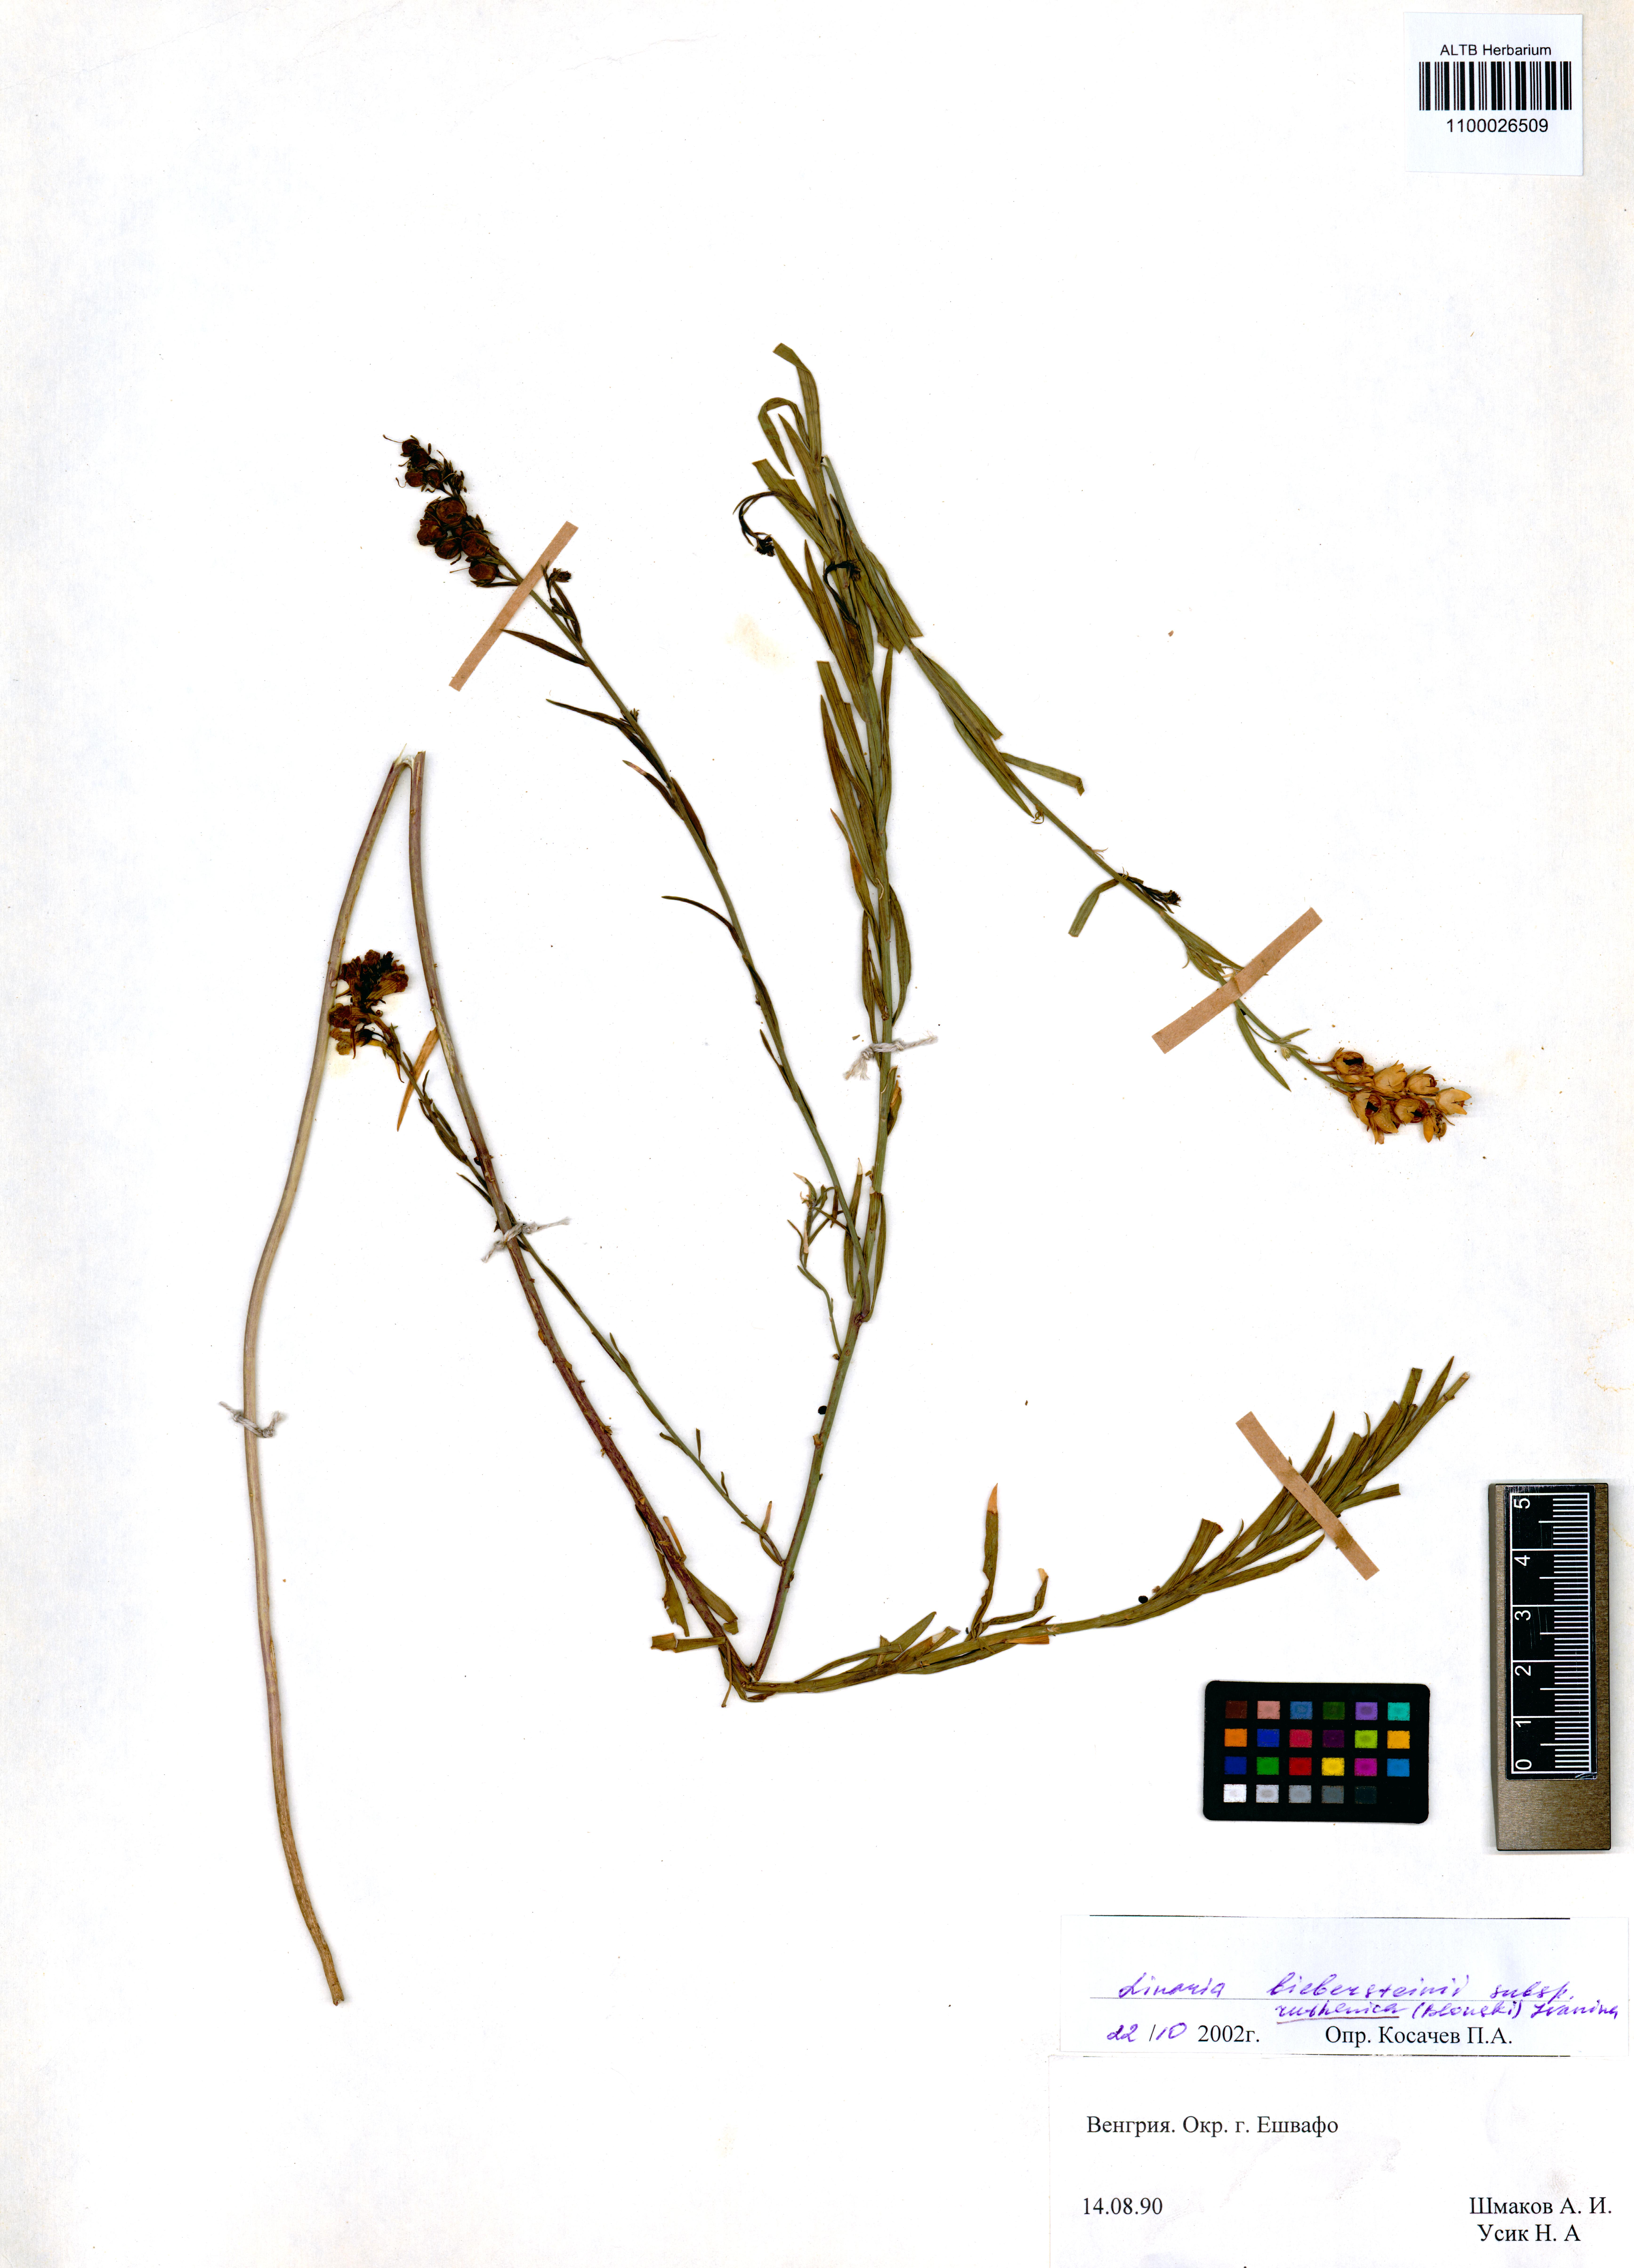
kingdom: Plantae
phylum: Tracheophyta
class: Magnoliopsida
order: Lamiales
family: Plantaginaceae
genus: Linaria
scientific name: Linaria biebersteinii
